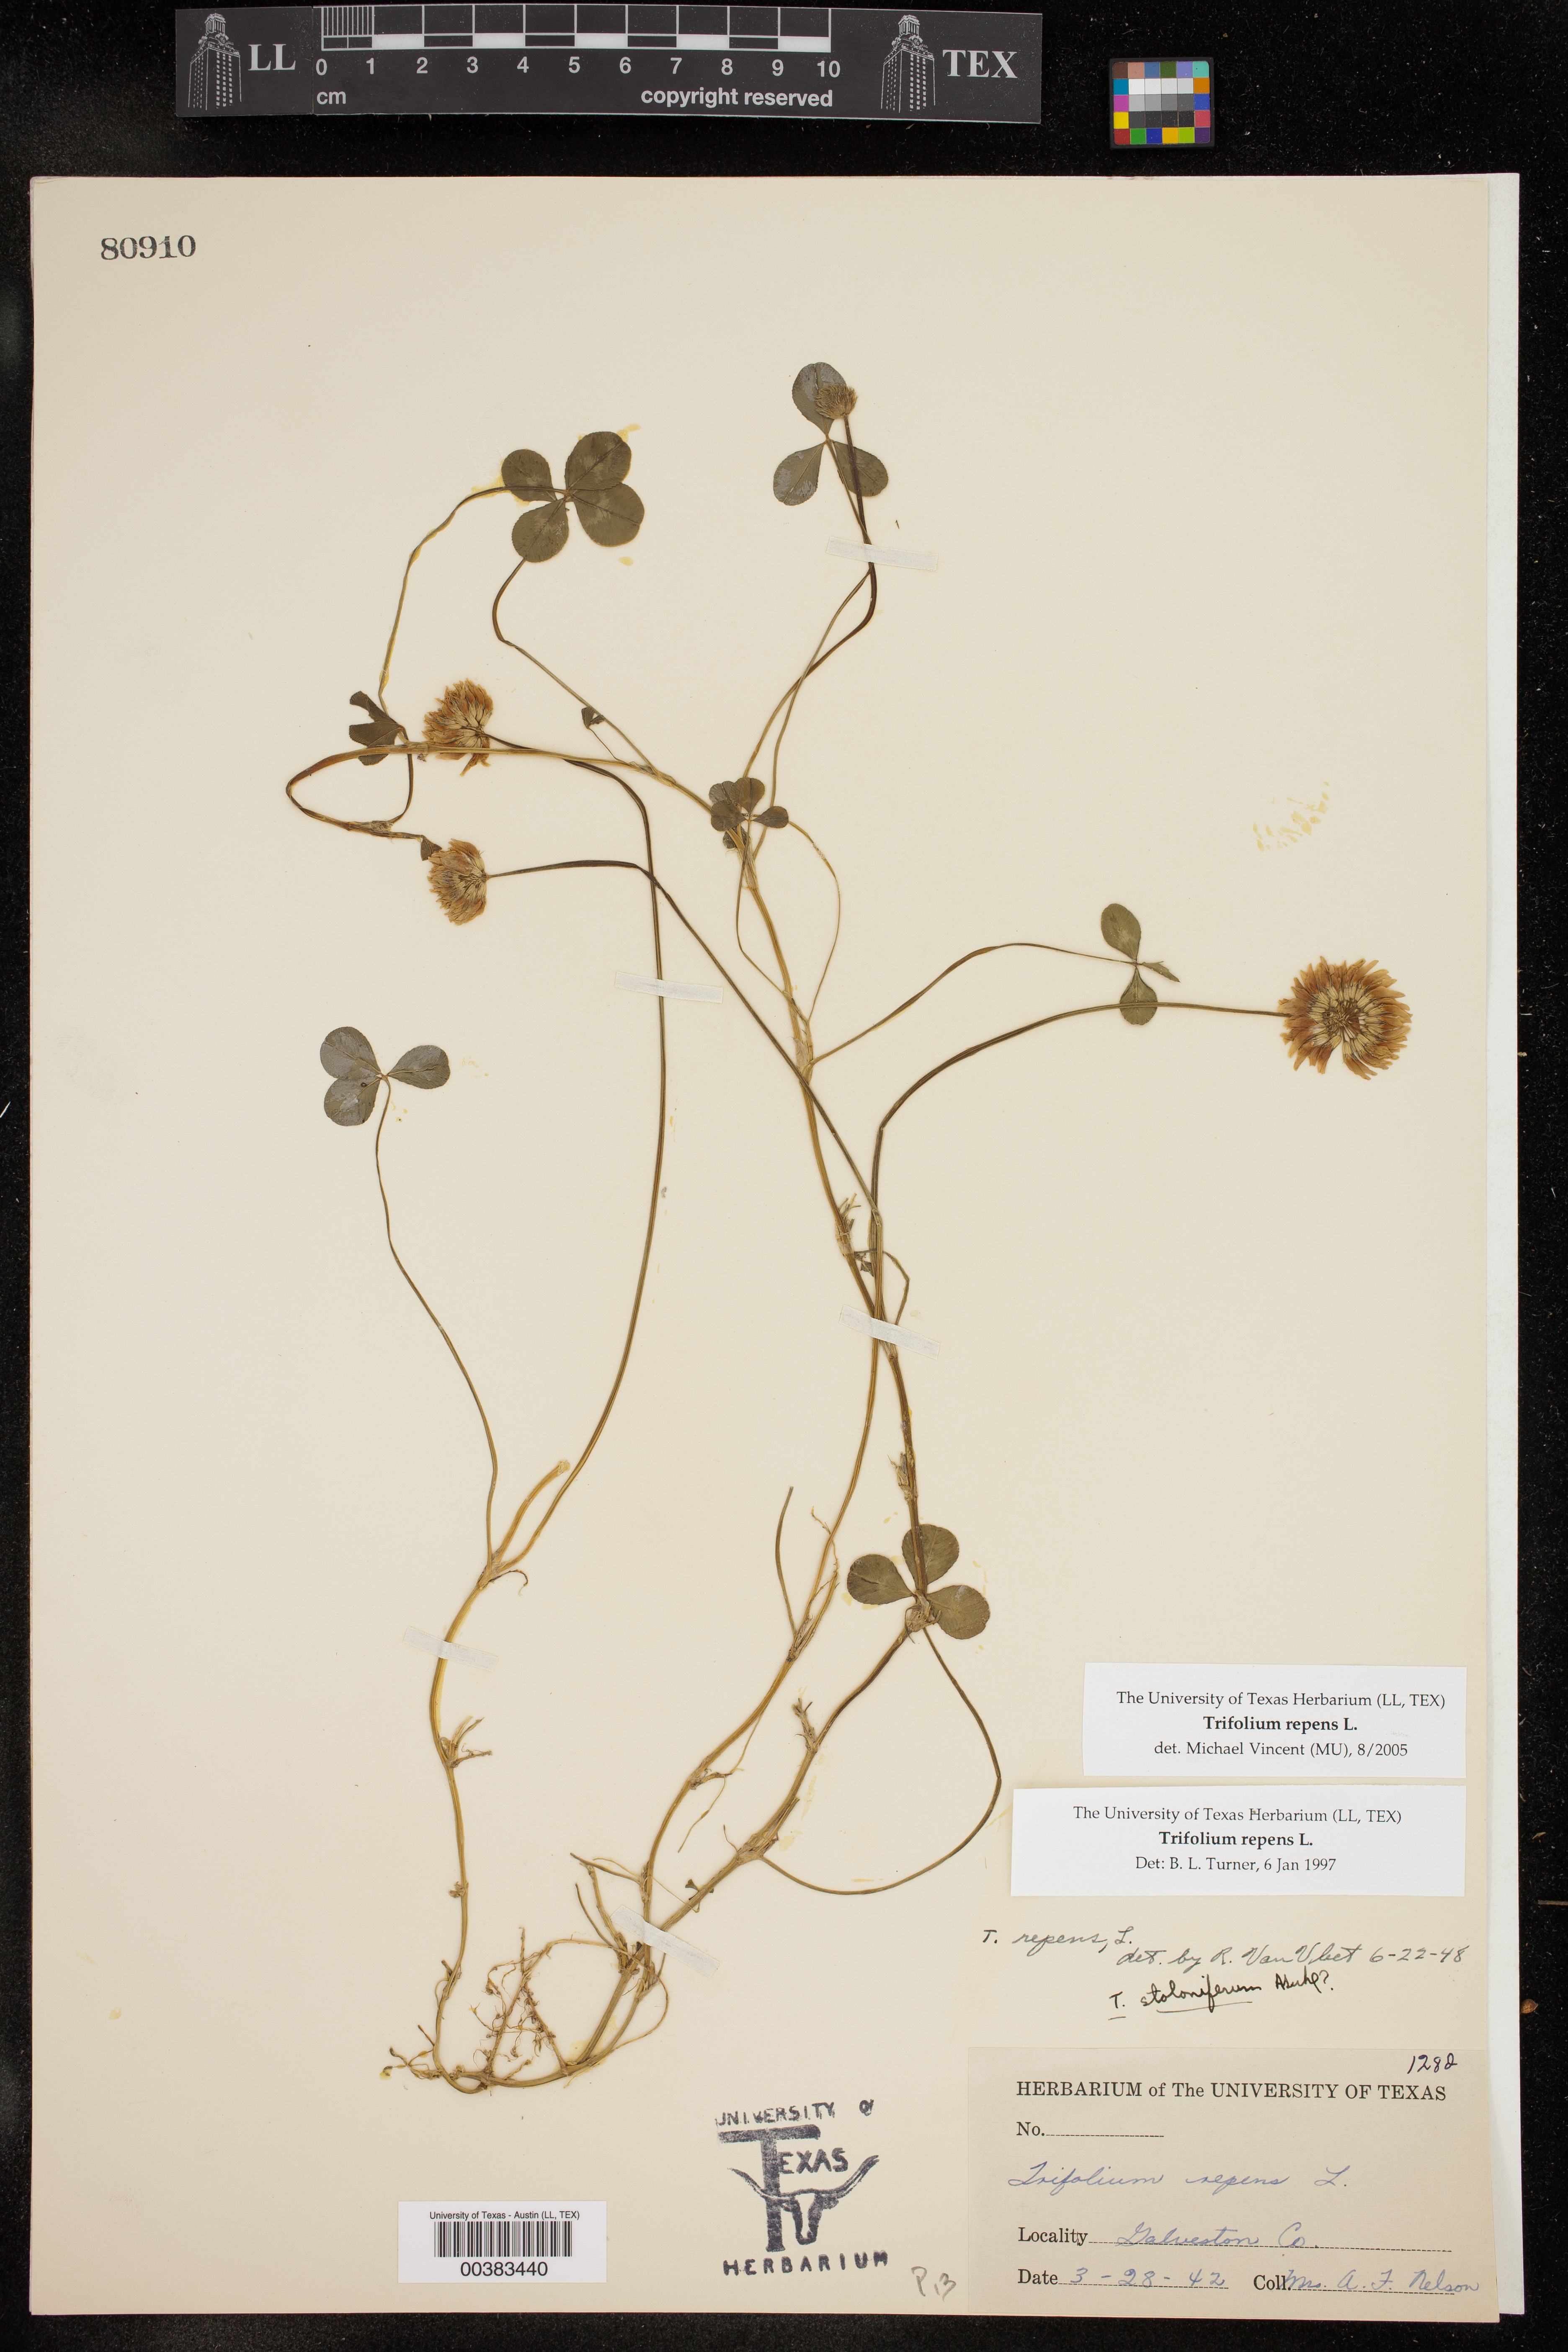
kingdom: Plantae
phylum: Tracheophyta
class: Magnoliopsida
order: Fabales
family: Fabaceae
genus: Trifolium
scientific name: Trifolium repens
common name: White clover
